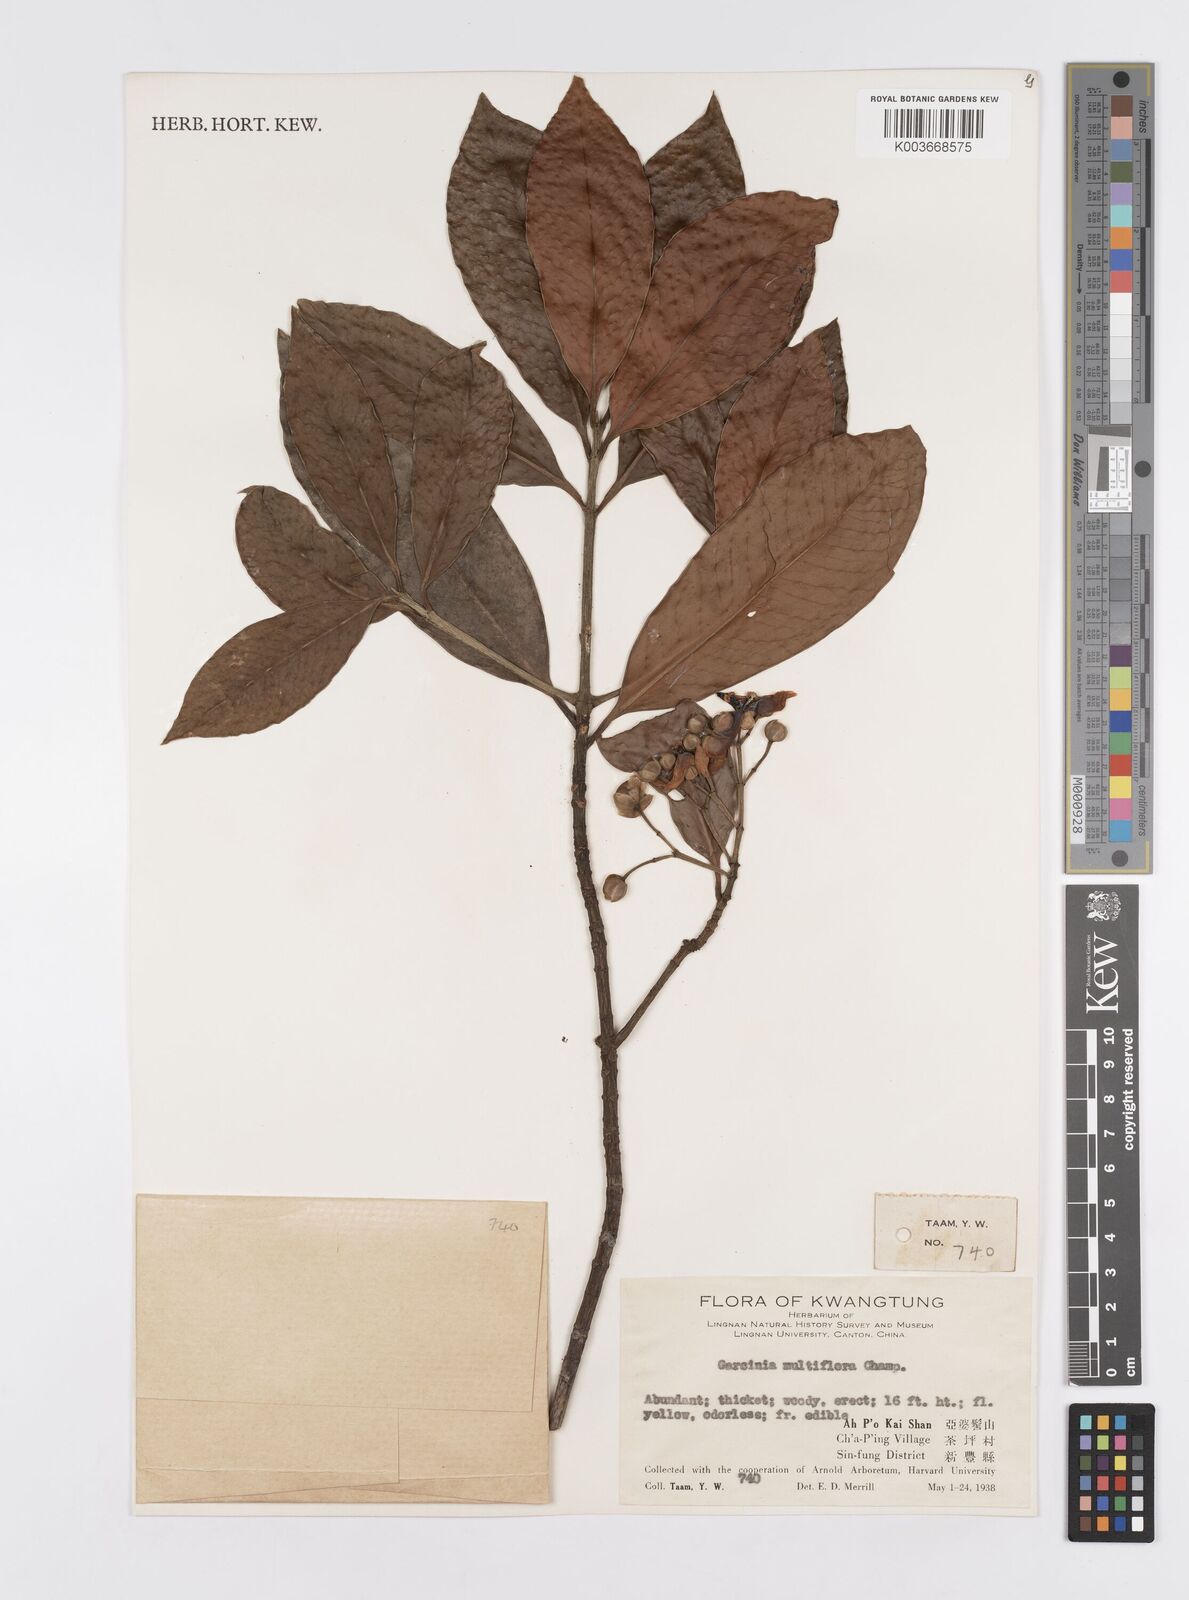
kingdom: Plantae
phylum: Tracheophyta
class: Magnoliopsida
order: Malpighiales
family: Clusiaceae
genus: Garcinia
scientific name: Garcinia multiflora
